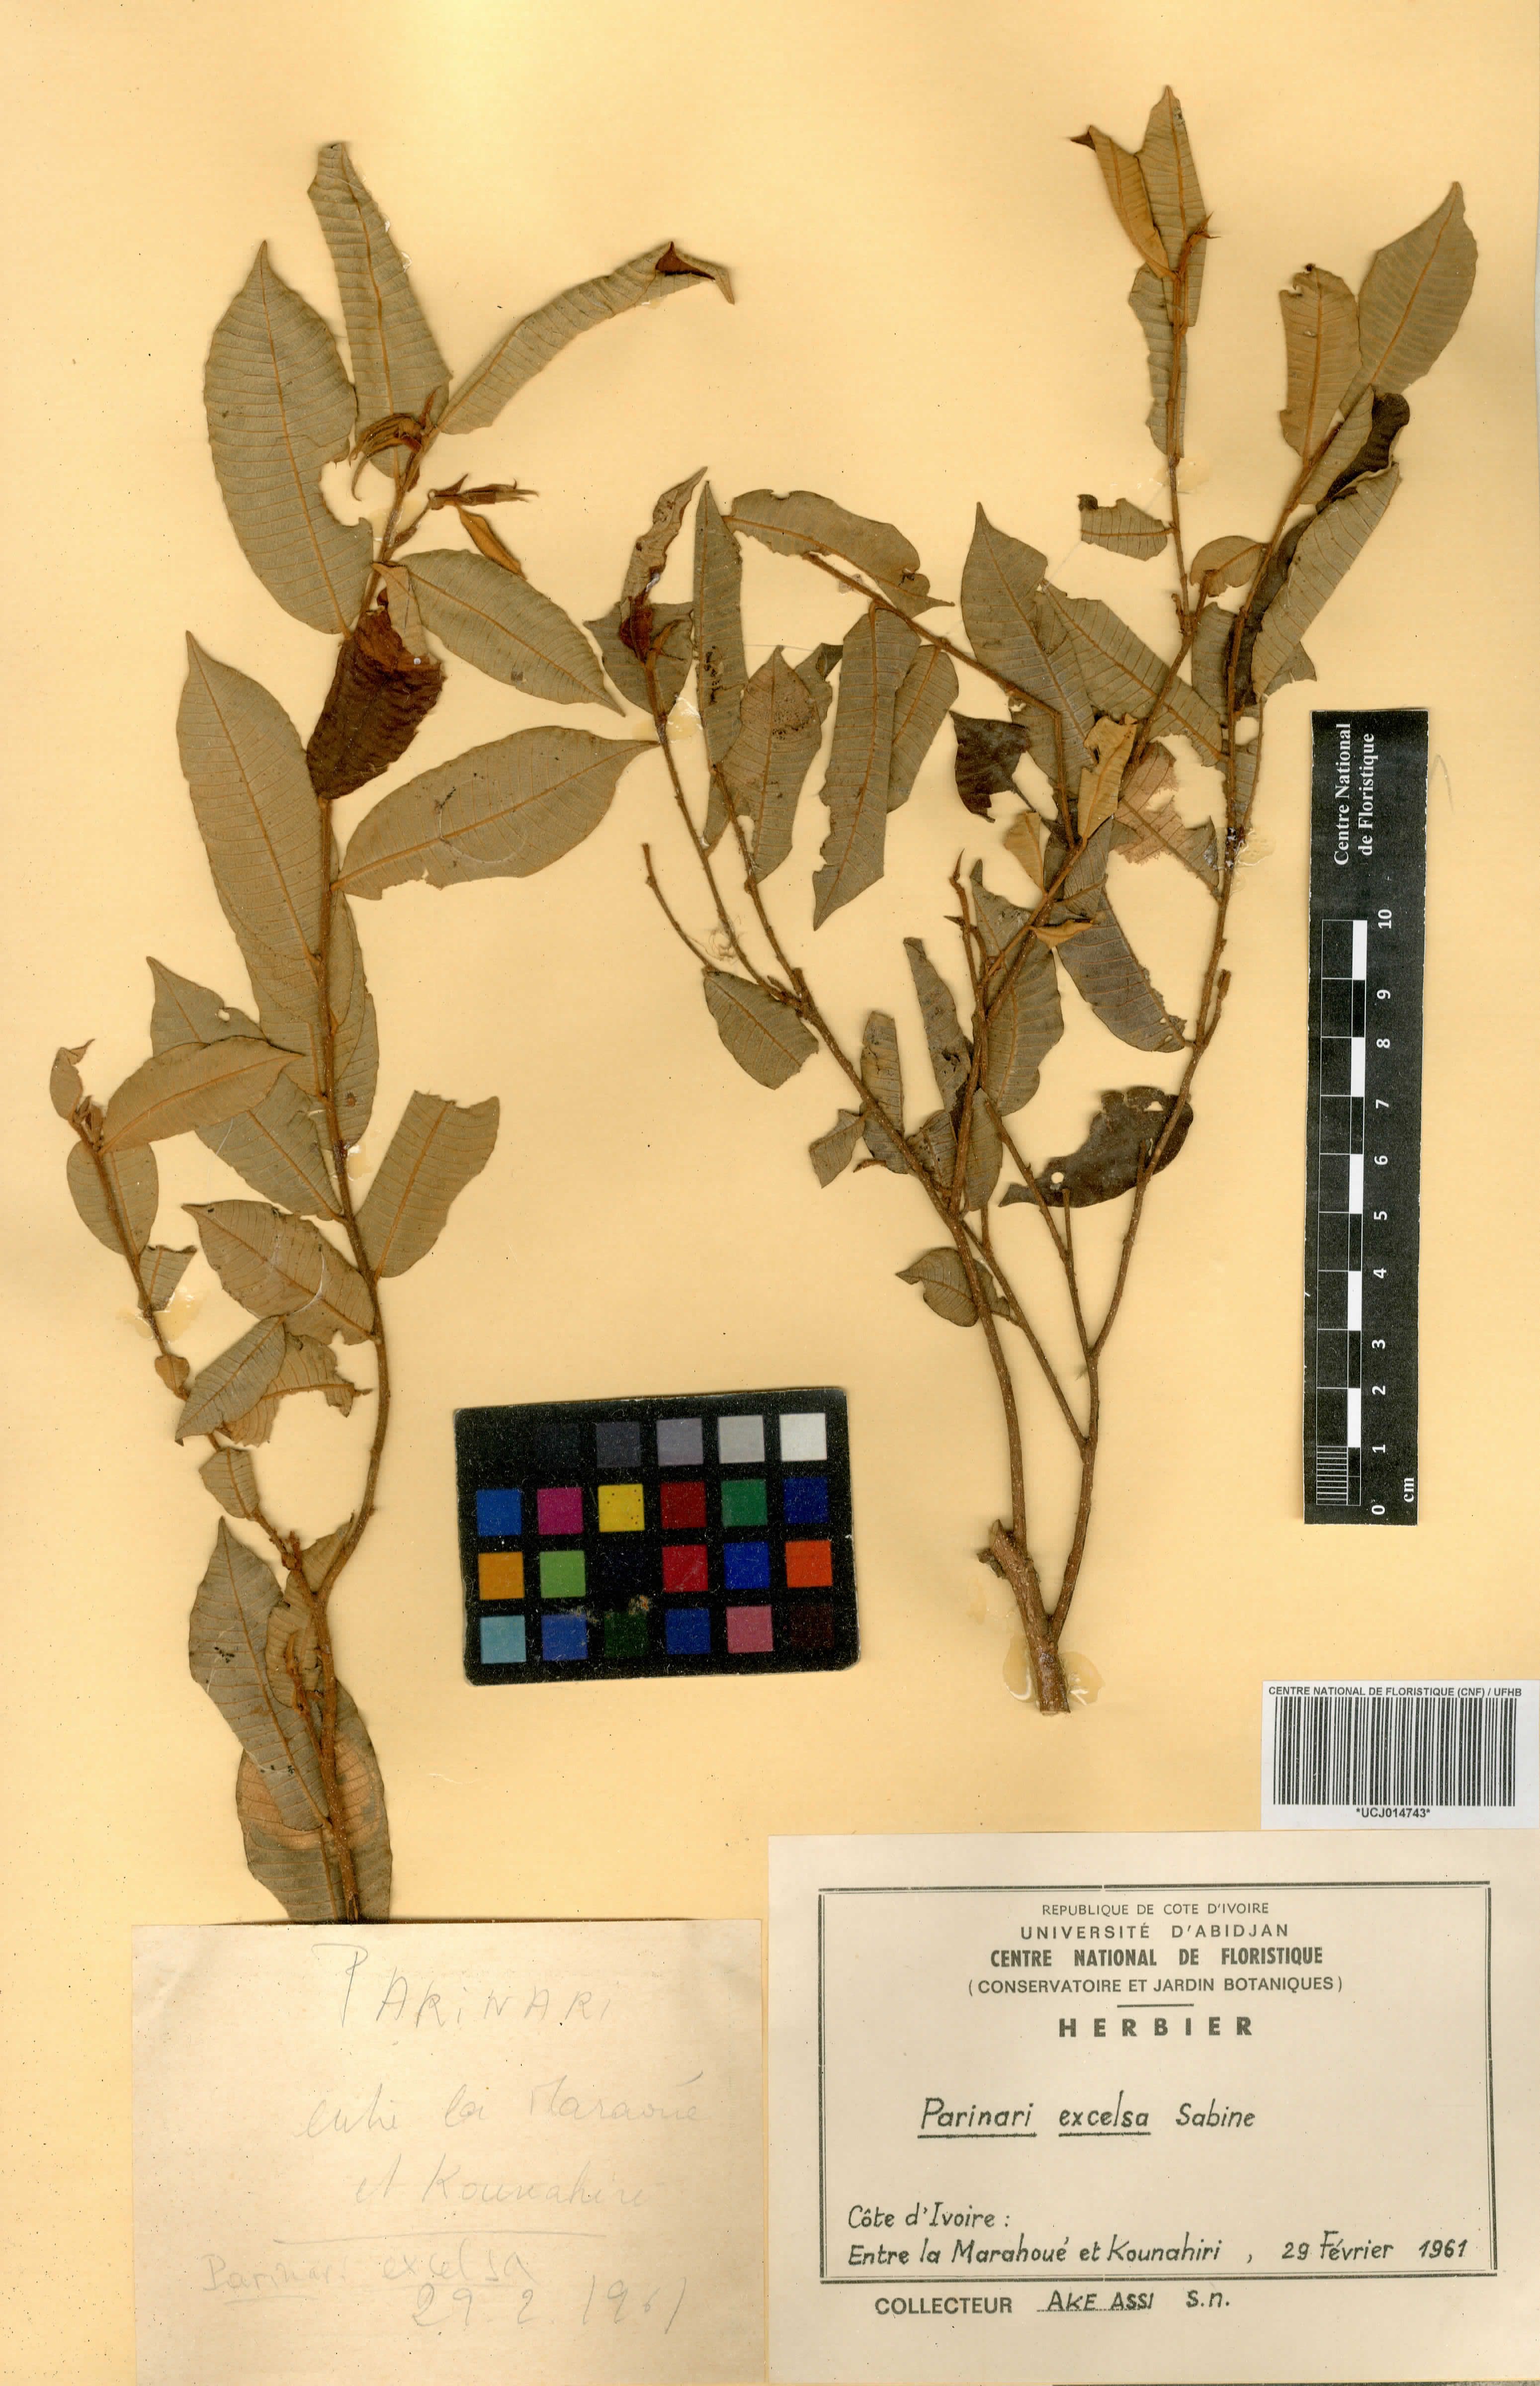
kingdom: Plantae
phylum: Tracheophyta
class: Magnoliopsida
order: Malpighiales
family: Chrysobalanaceae
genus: Parinari
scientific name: Parinari excelsa
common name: Guinea-plum
